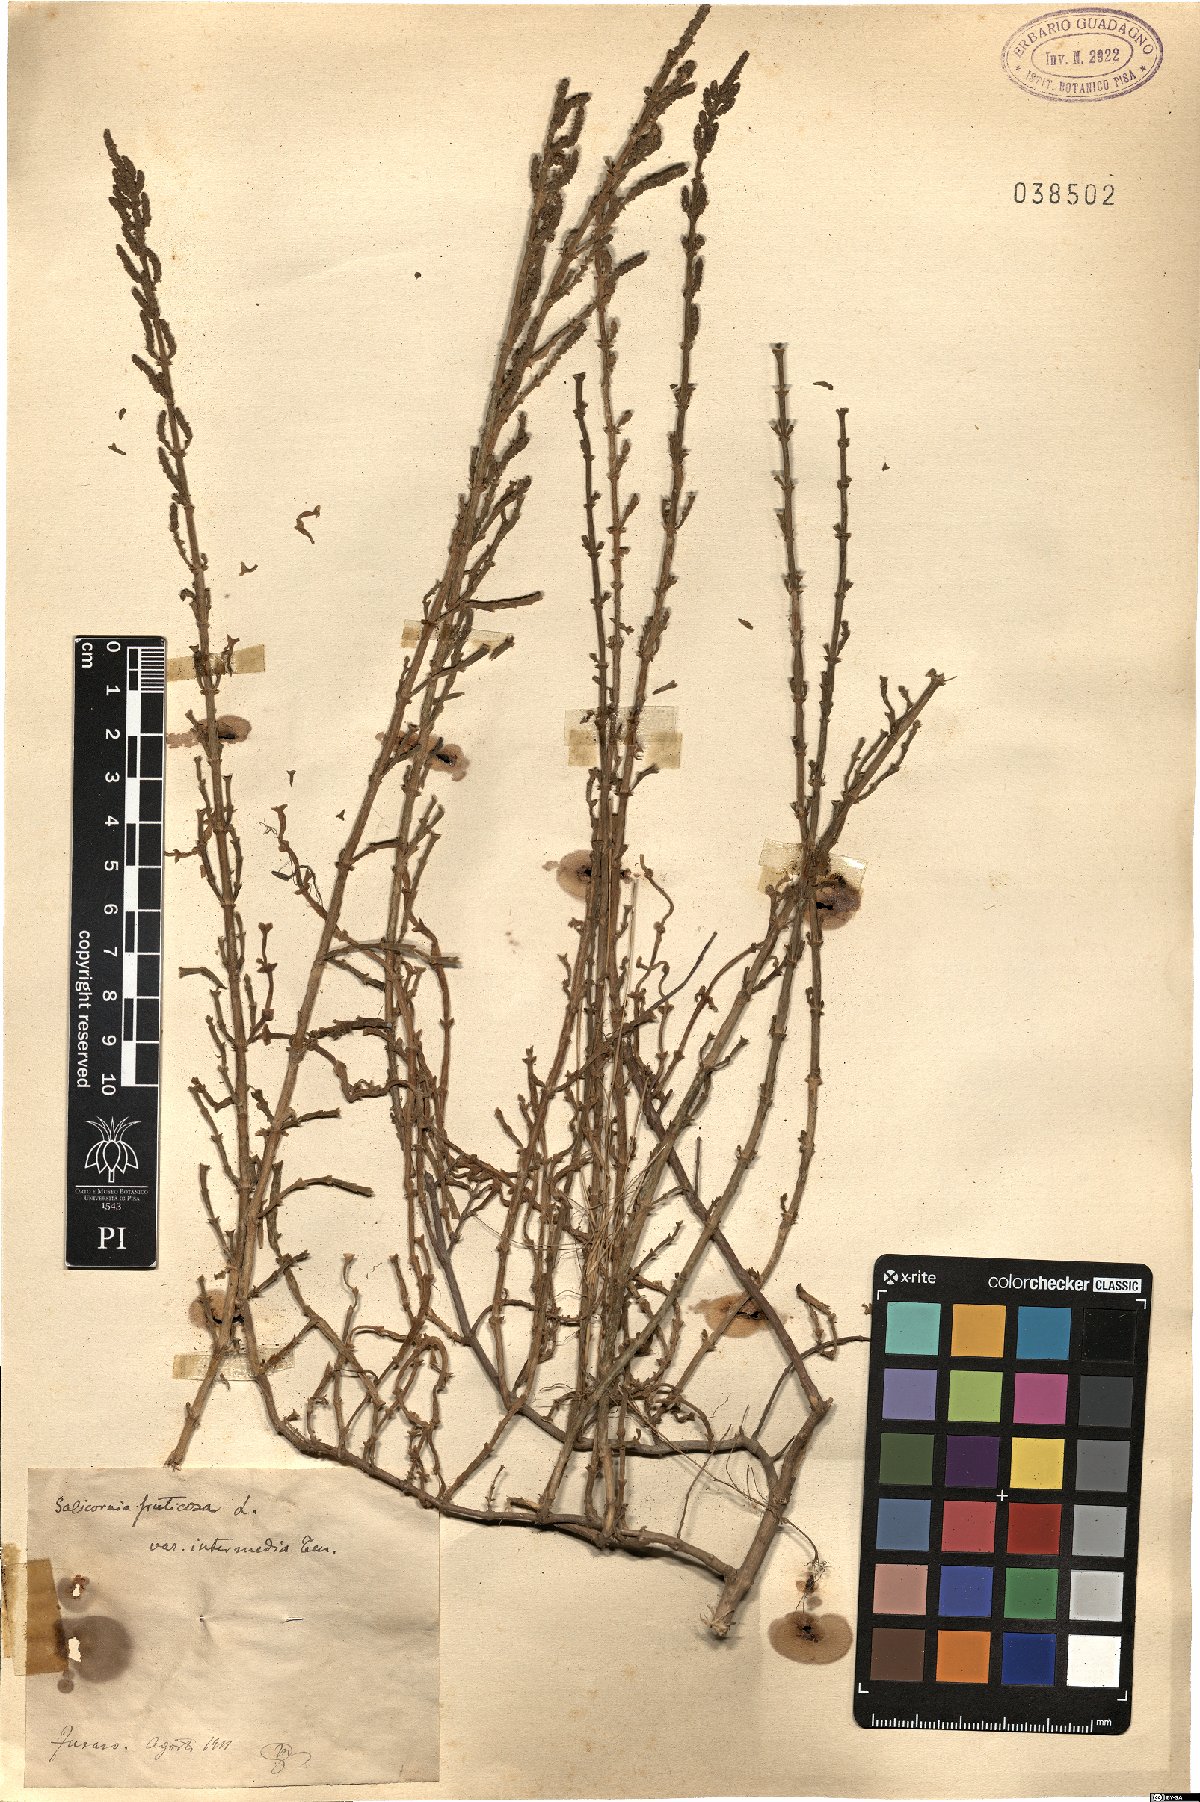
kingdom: Plantae
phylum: Tracheophyta
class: Magnoliopsida
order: Caryophyllales
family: Amaranthaceae
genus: Salicornia
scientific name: Salicornia fruticosa
